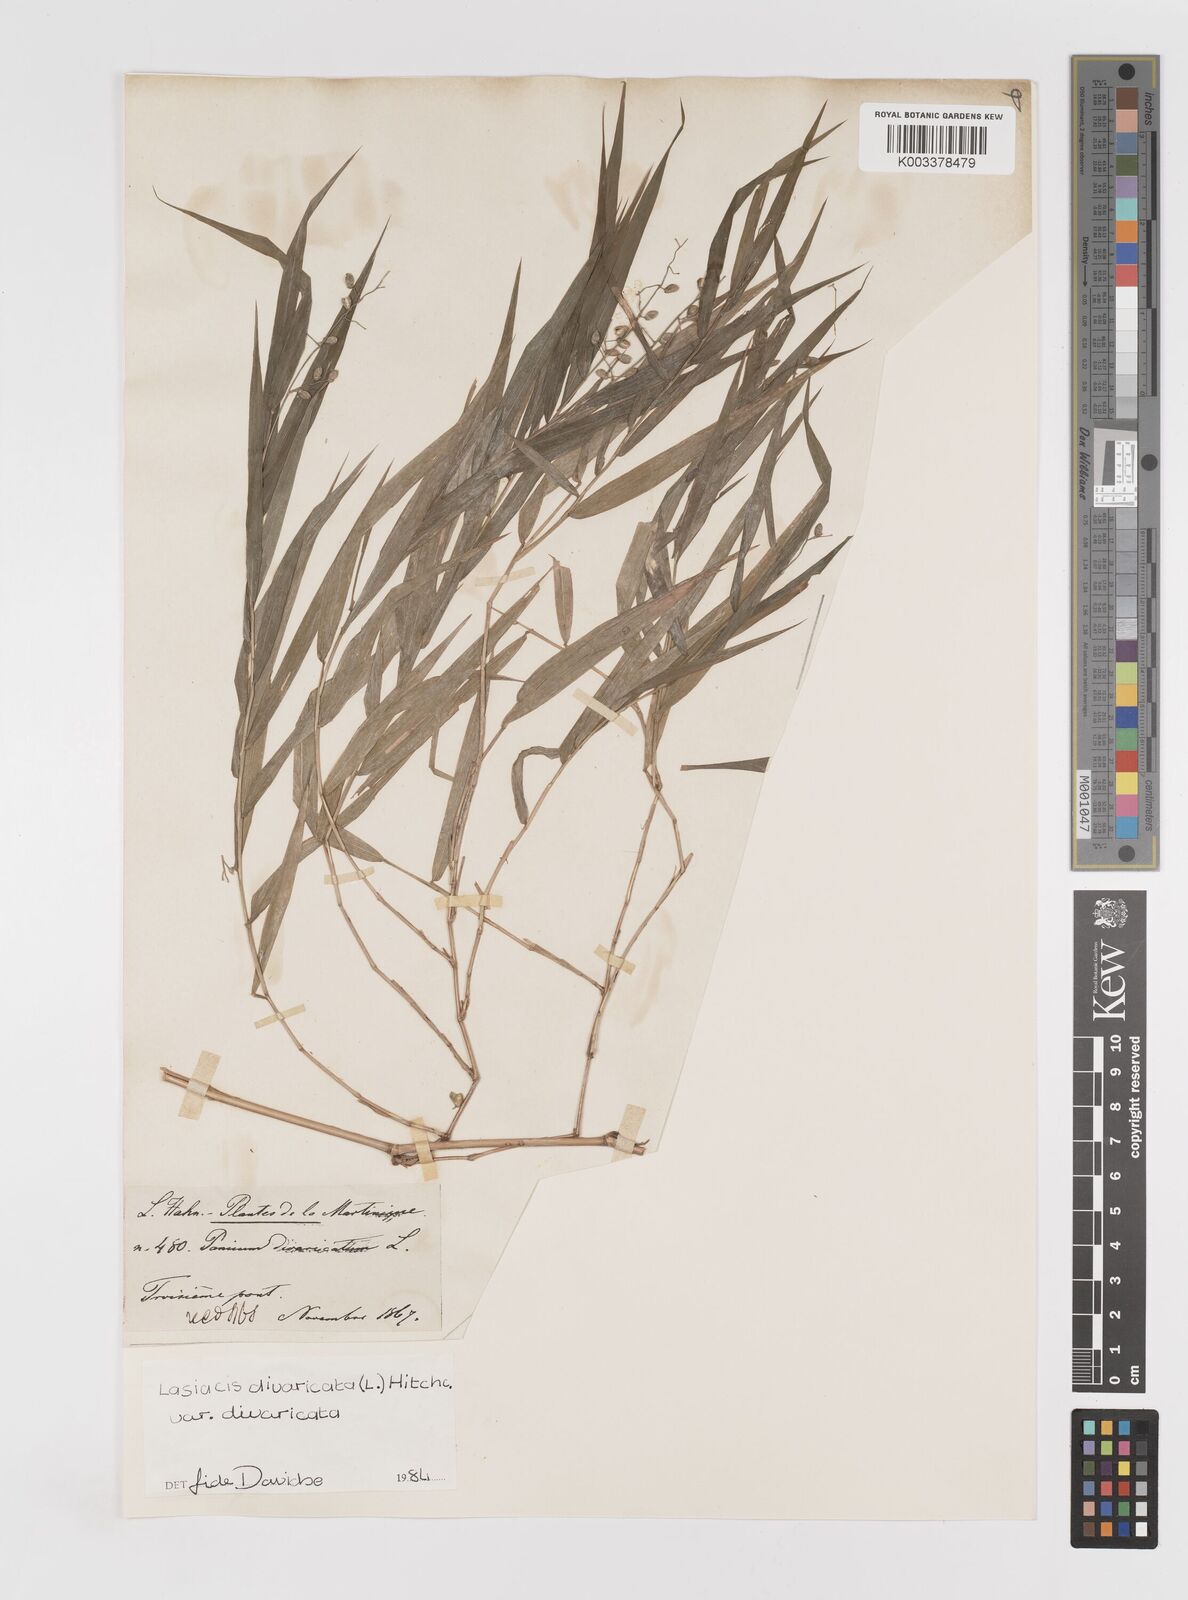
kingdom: Plantae
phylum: Tracheophyta
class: Liliopsida
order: Poales
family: Poaceae
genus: Lasiacis
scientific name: Lasiacis divaricata
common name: Smallcane
